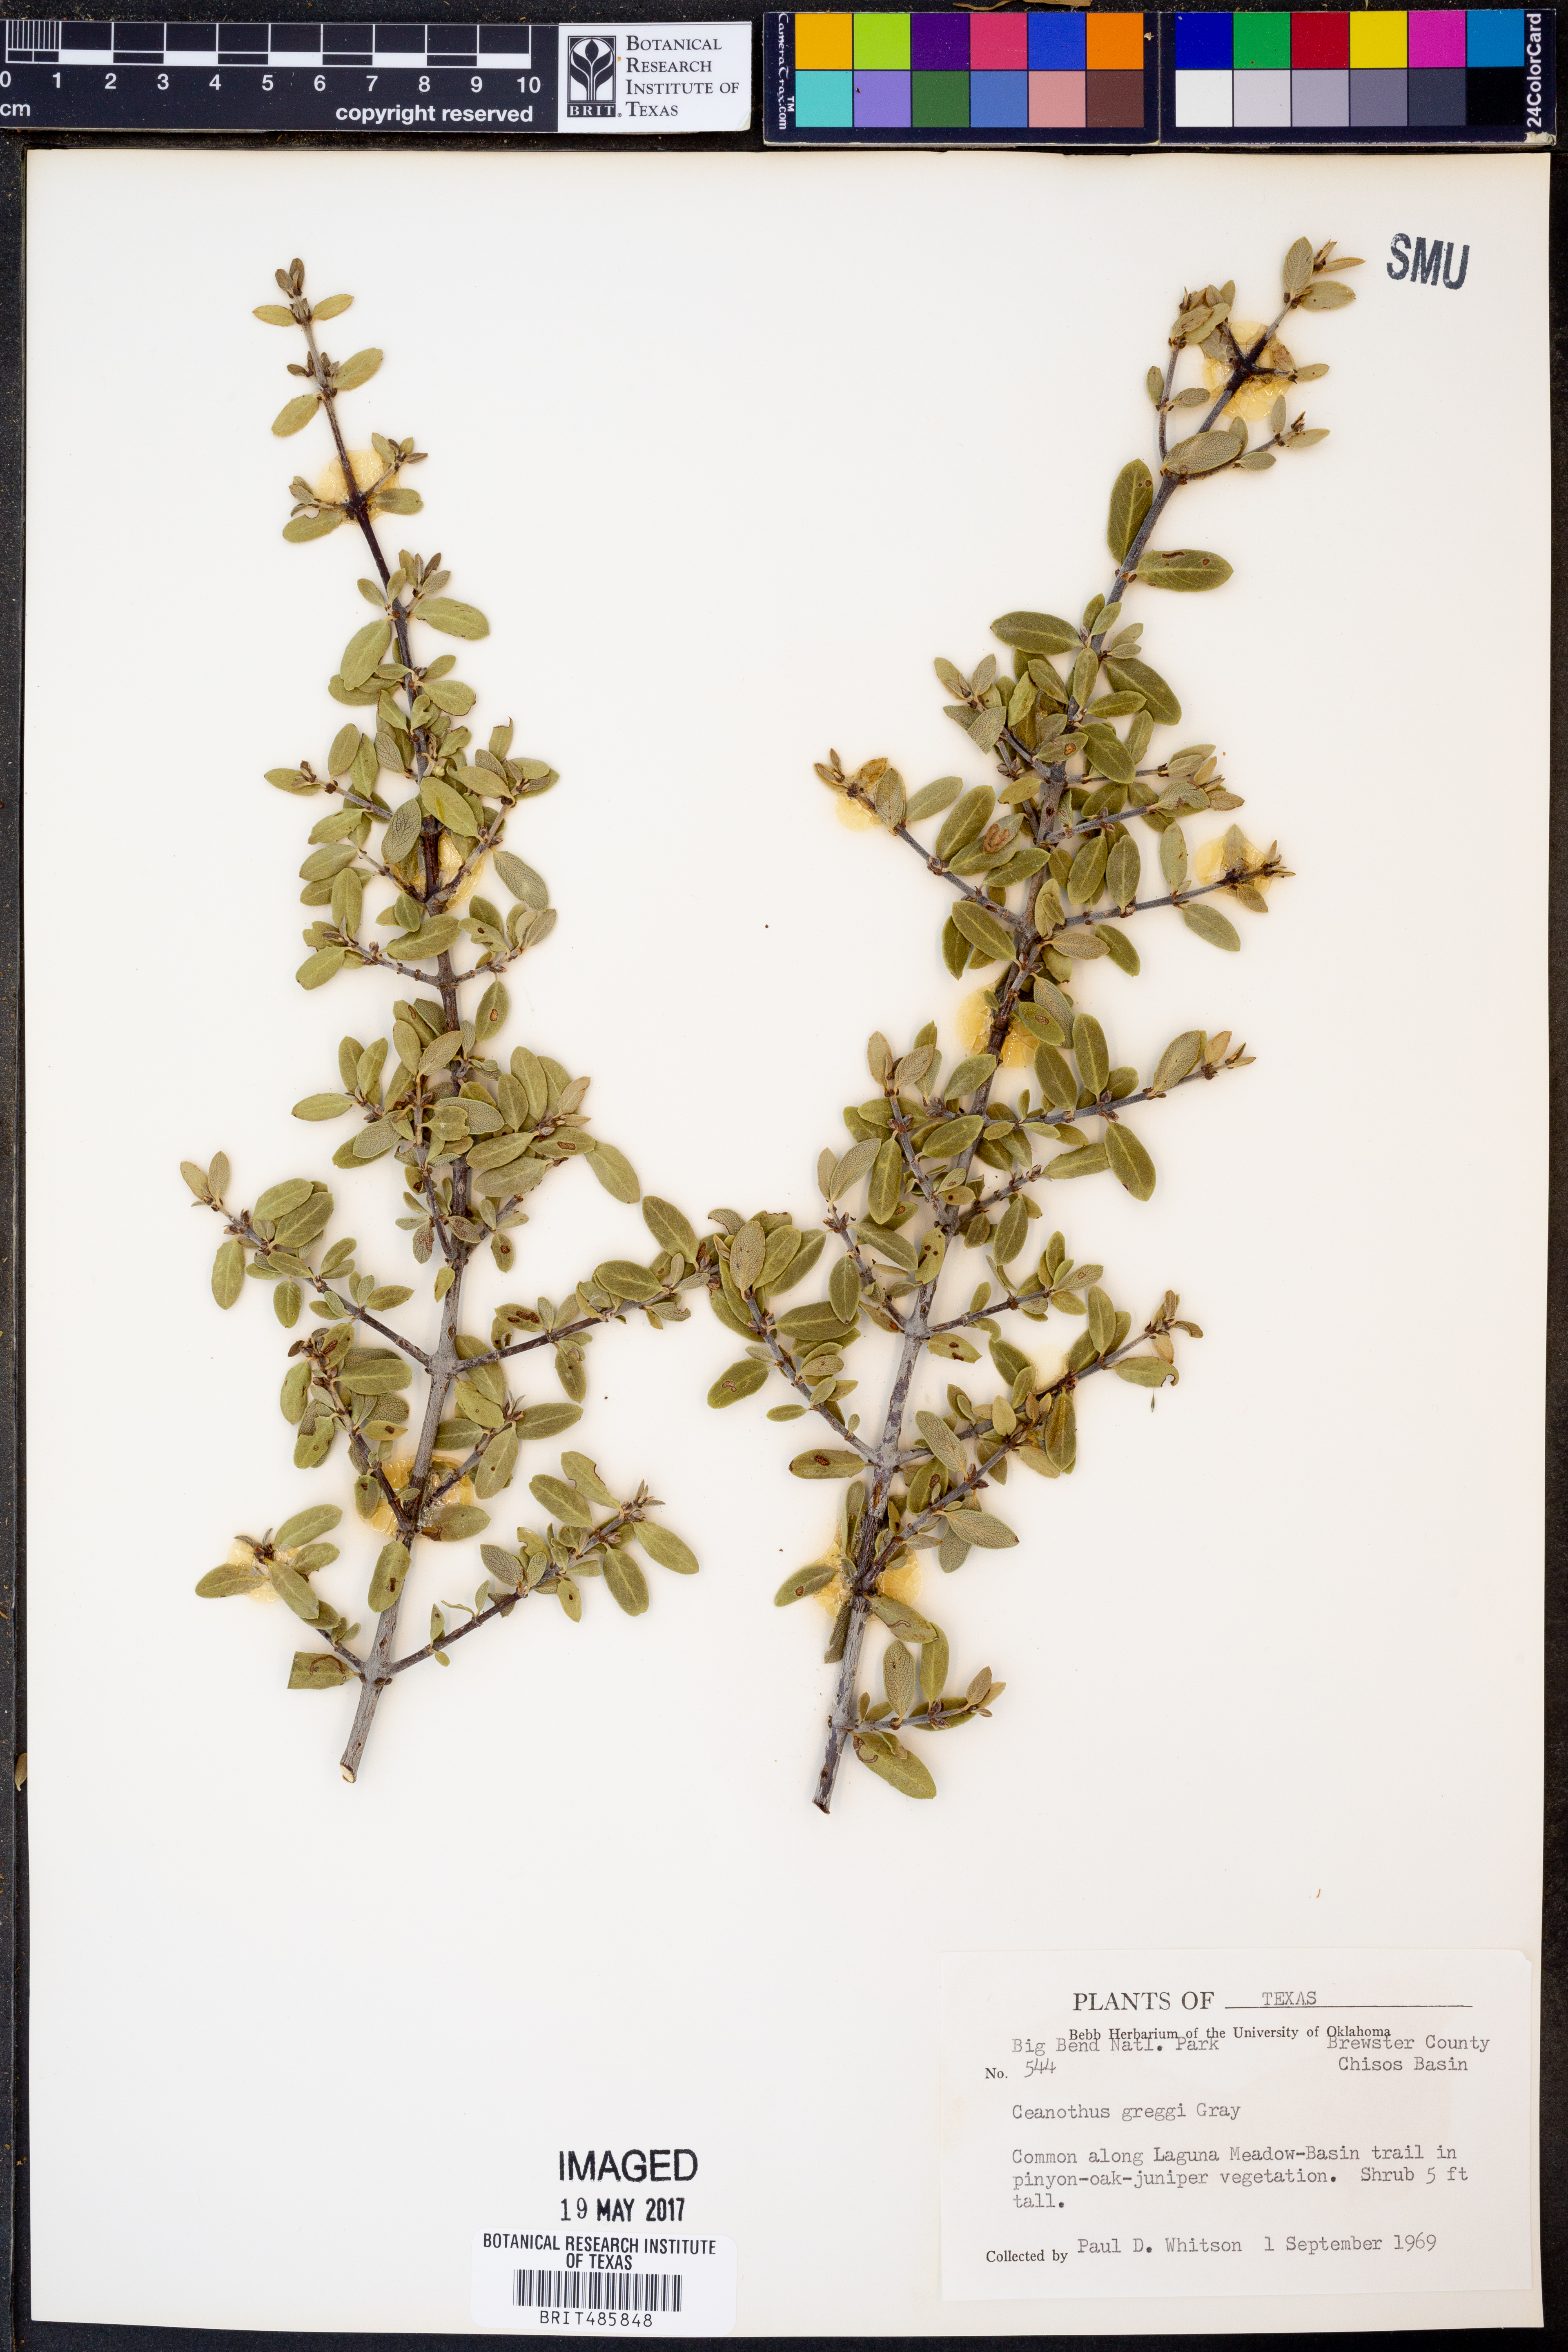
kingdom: Plantae
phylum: Tracheophyta
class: Magnoliopsida
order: Rosales
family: Rhamnaceae
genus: Ceanothus
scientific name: Ceanothus pauciflorus
